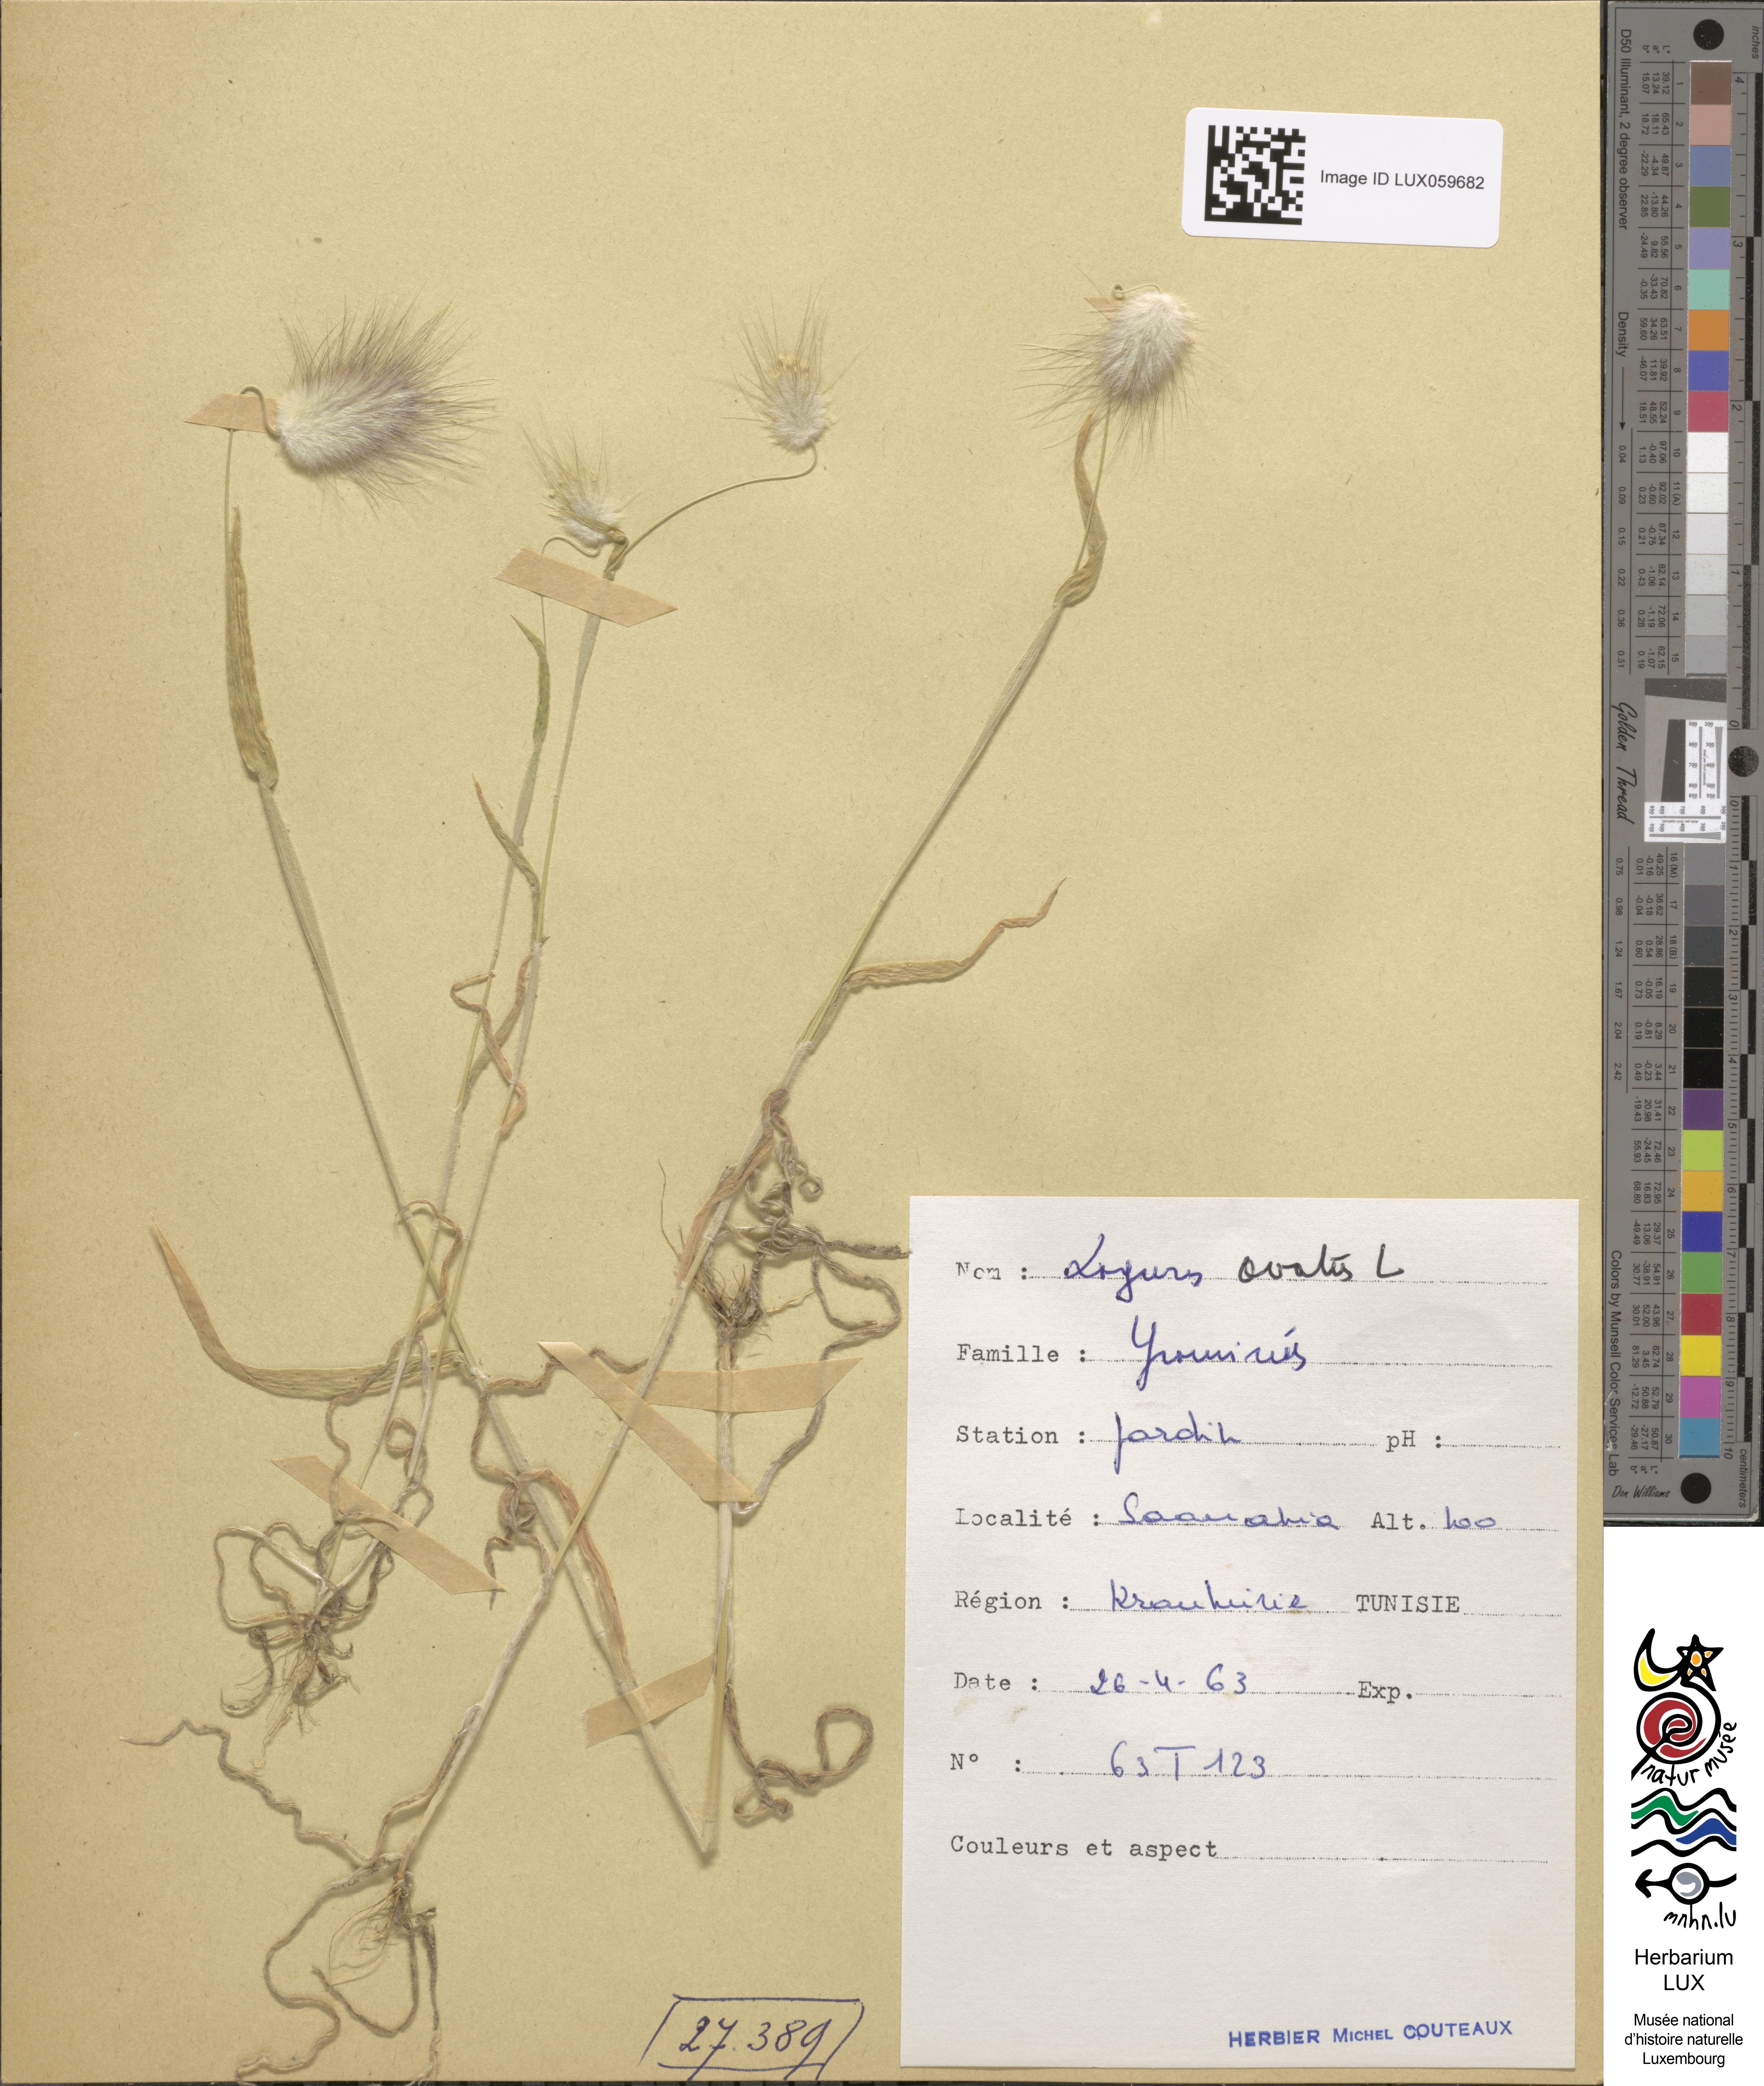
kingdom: Plantae
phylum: Tracheophyta
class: Liliopsida
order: Poales
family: Poaceae
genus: Lagurus
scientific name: Lagurus ovatus
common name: Hare's-tail
